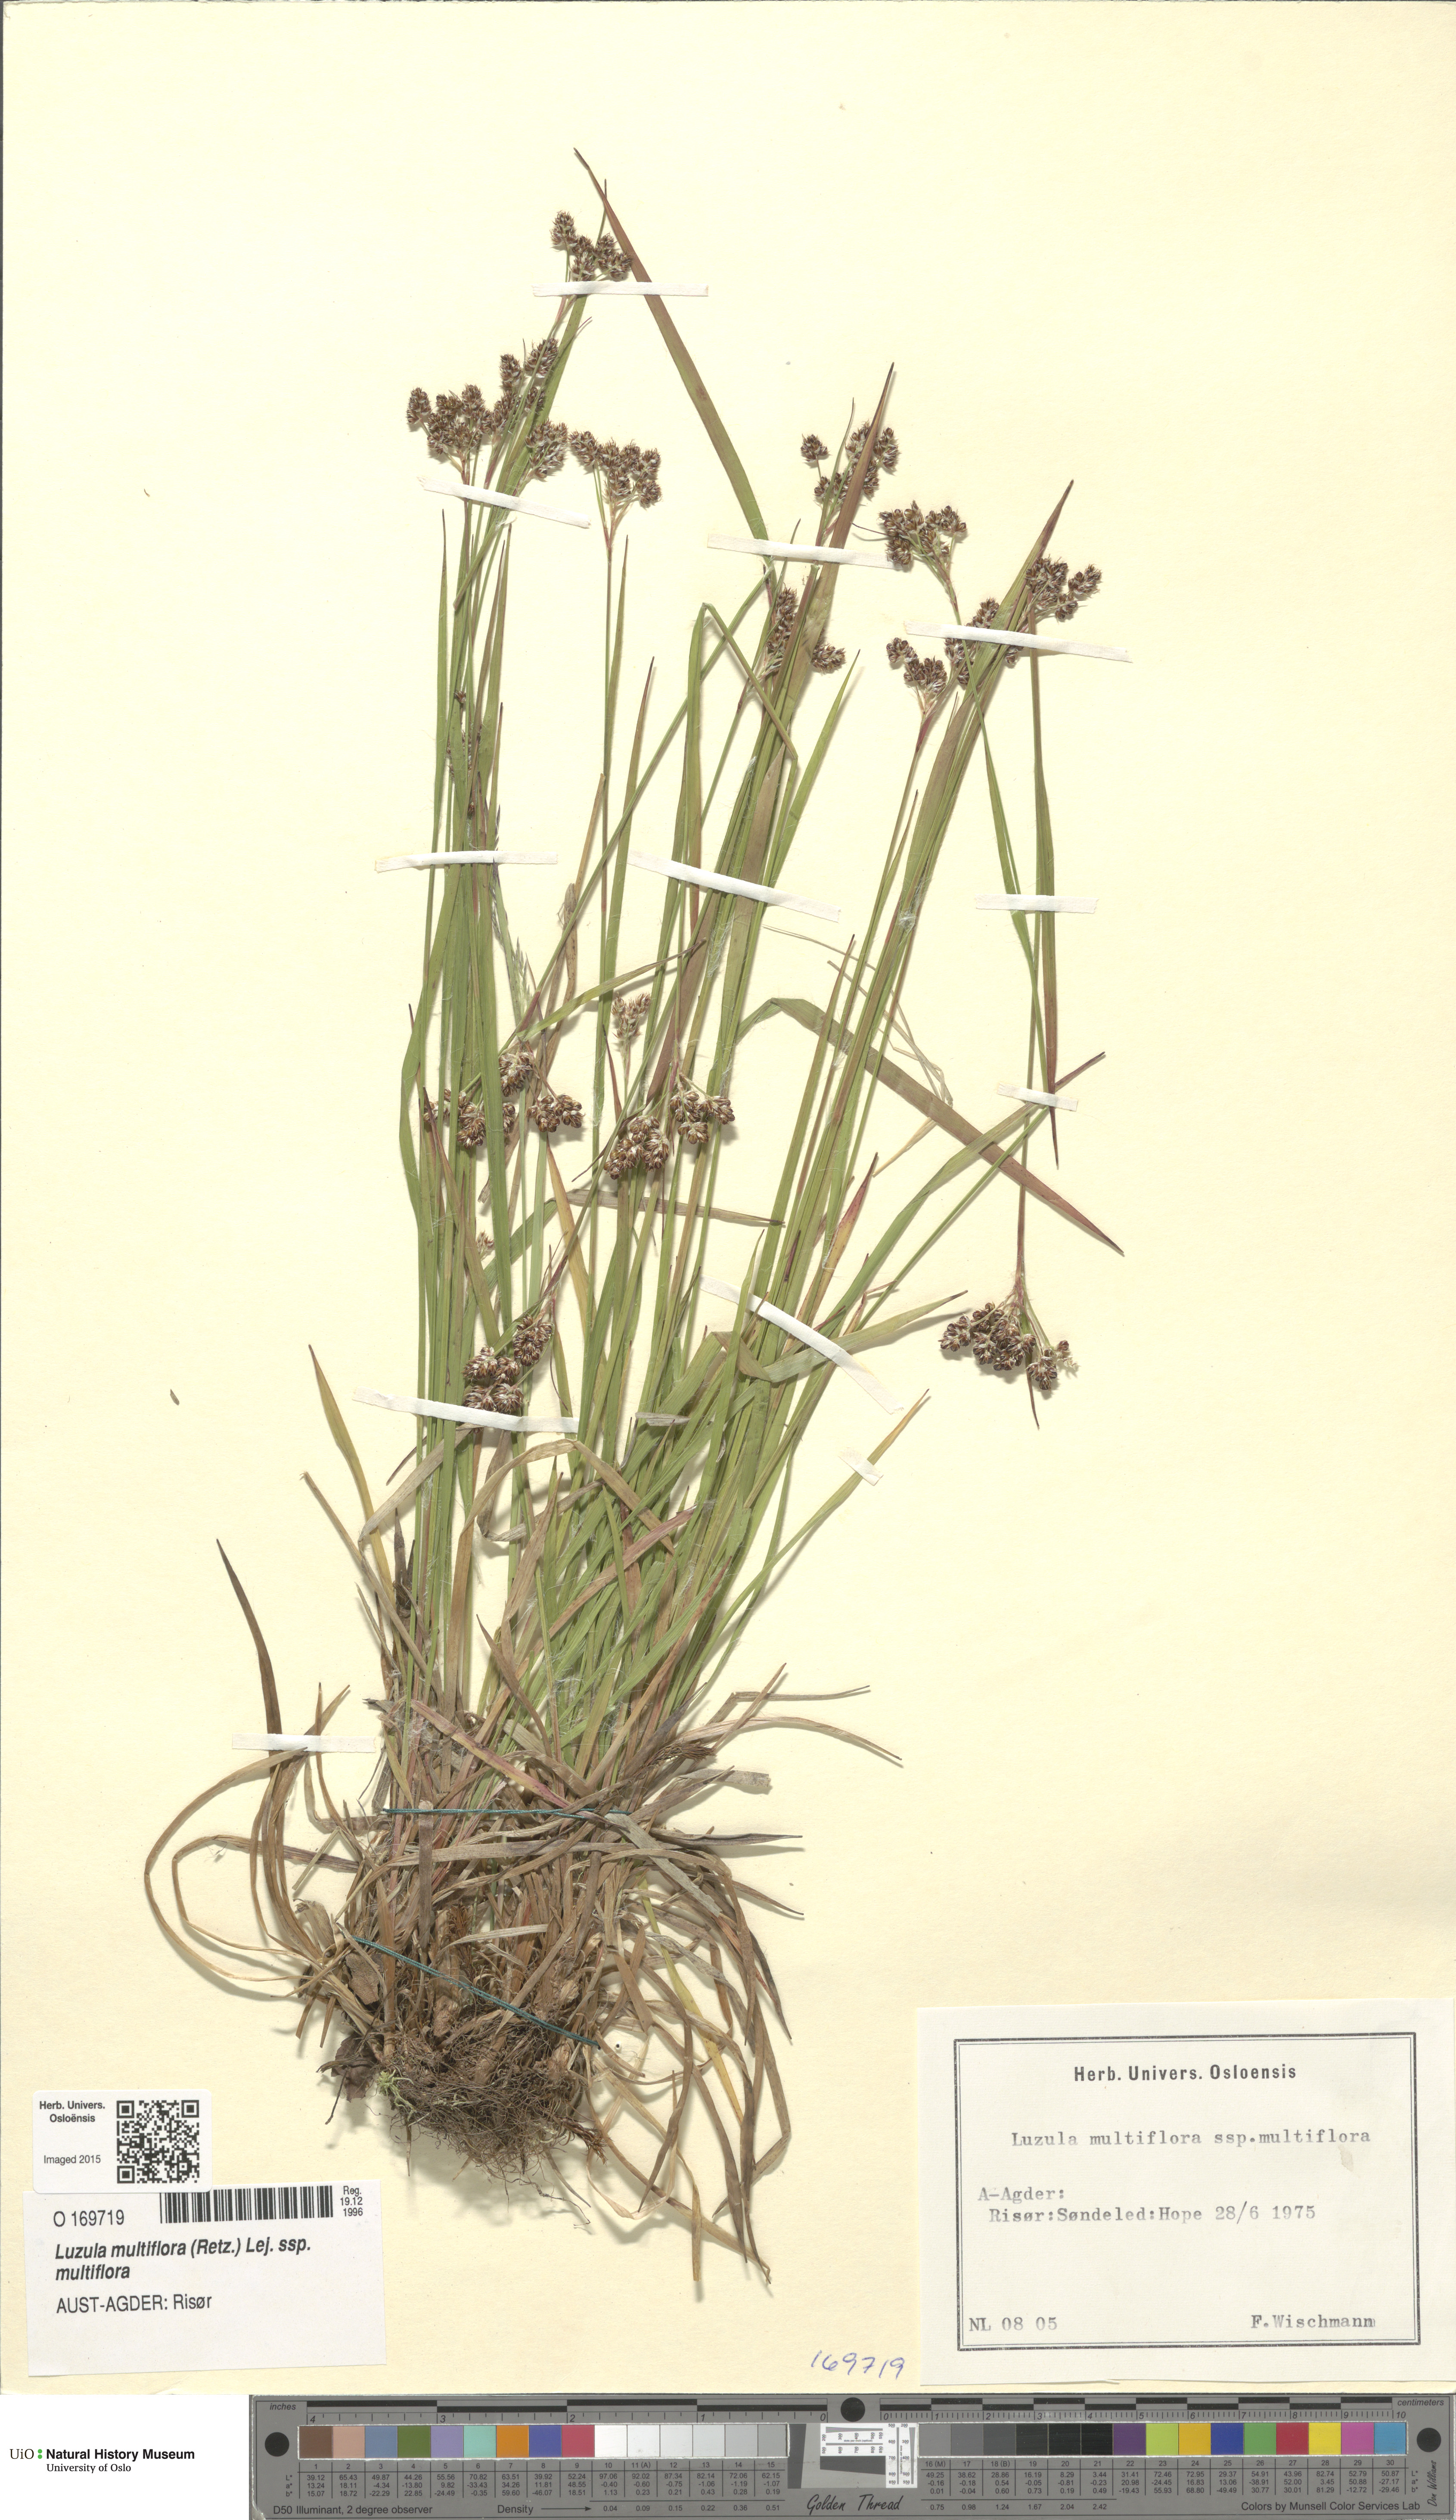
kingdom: Plantae
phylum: Tracheophyta
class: Liliopsida
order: Poales
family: Juncaceae
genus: Luzula
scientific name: Luzula multiflora
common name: Heath wood-rush
